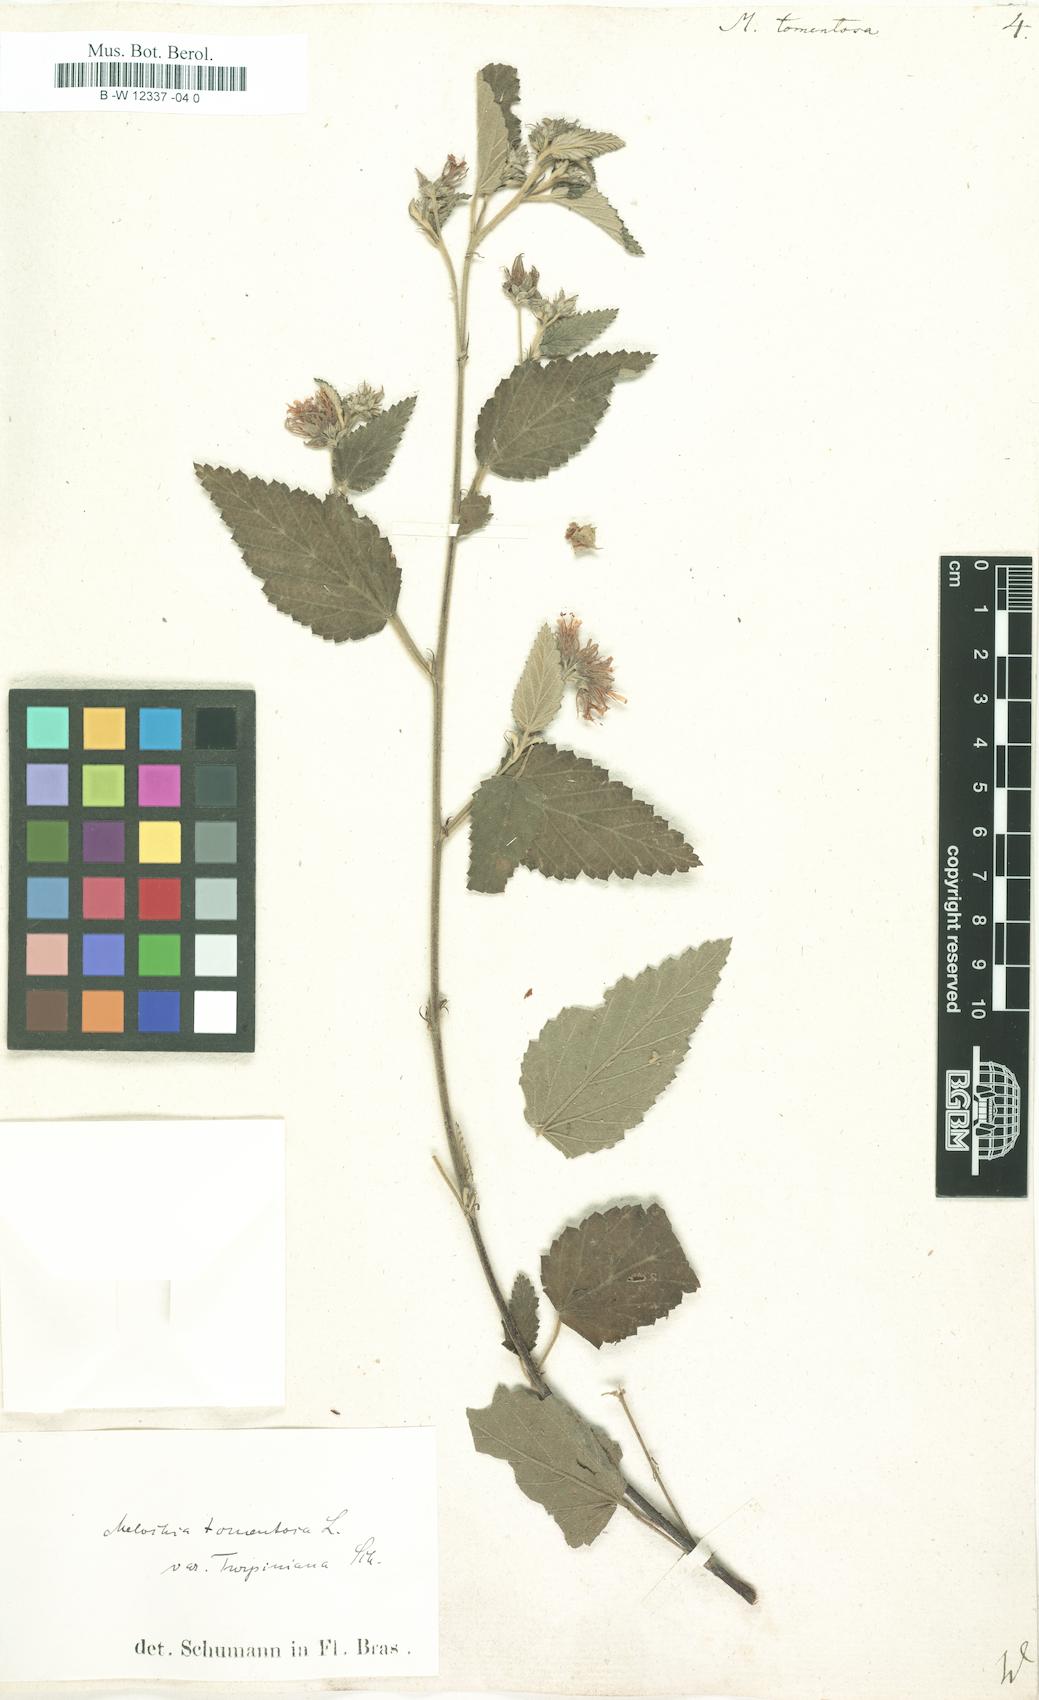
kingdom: Plantae
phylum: Tracheophyta
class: Magnoliopsida
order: Malvales
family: Malvaceae
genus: Melochia
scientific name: Melochia tomentosa
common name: Black torch
